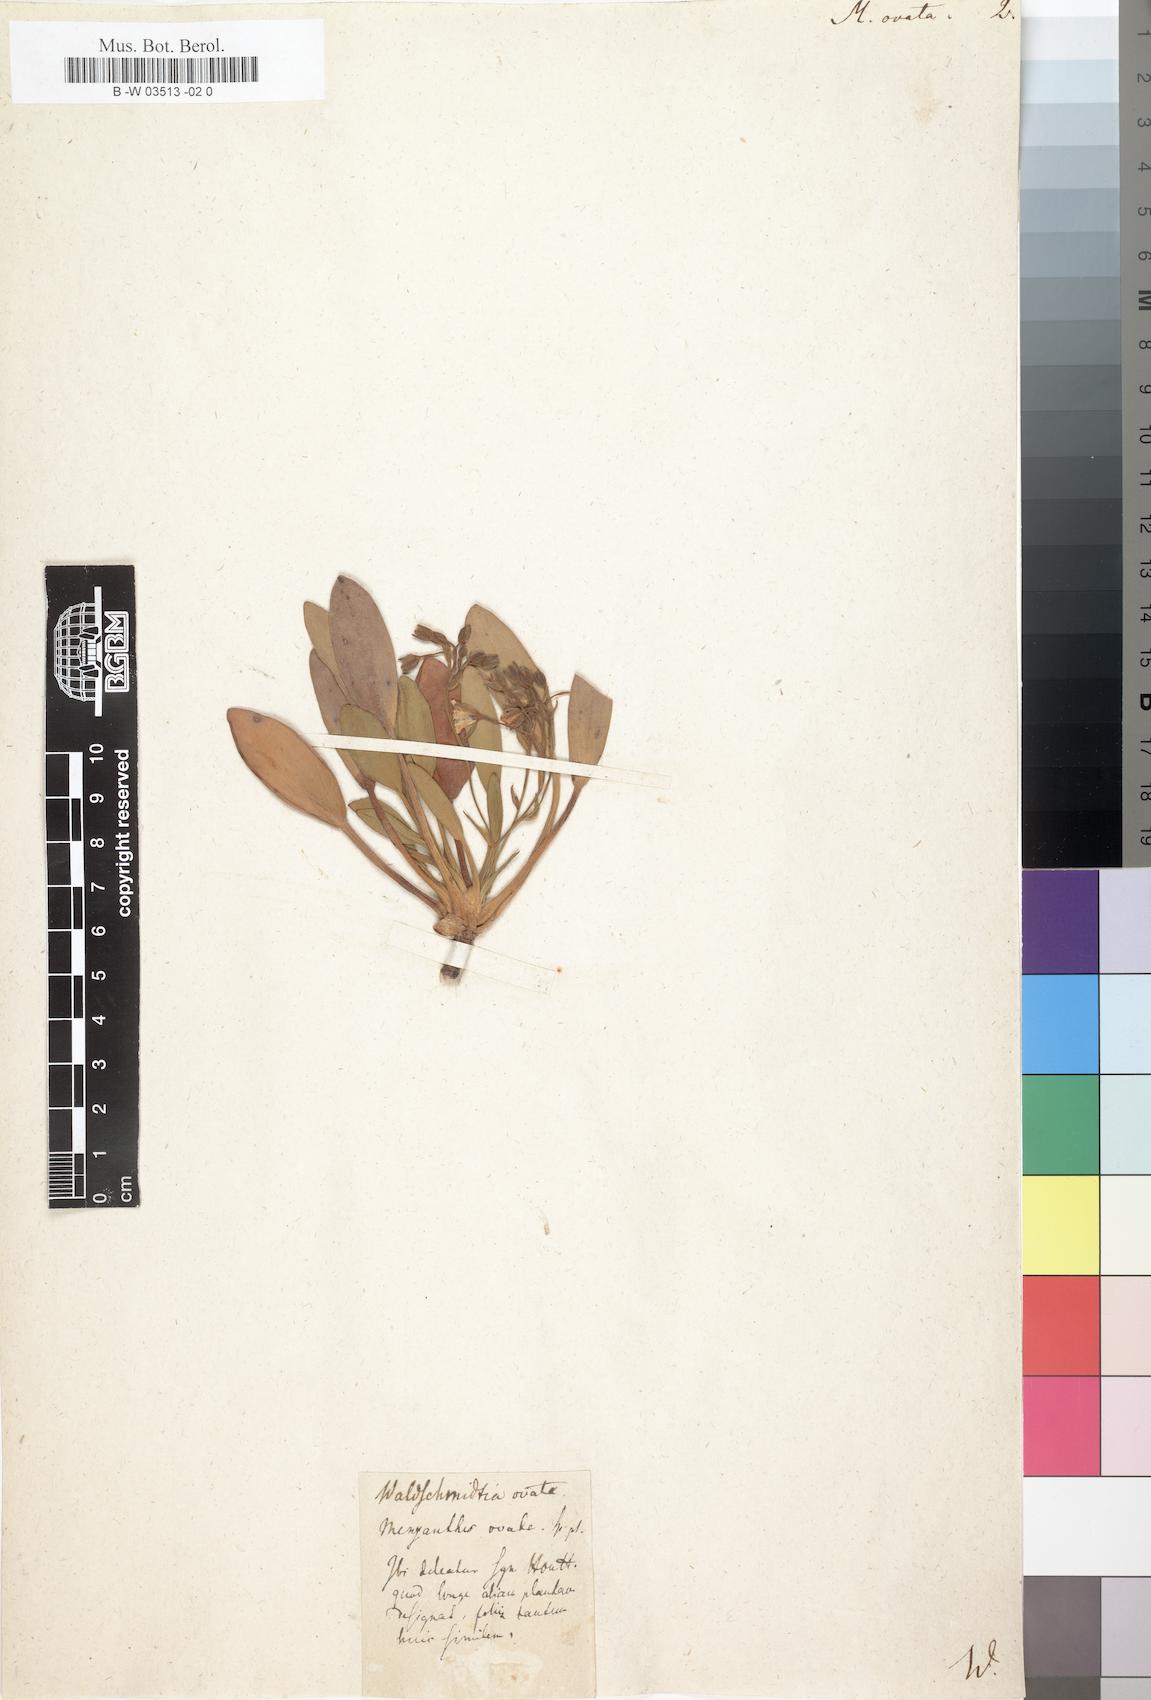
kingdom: Plantae
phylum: Tracheophyta
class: Magnoliopsida
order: Asterales
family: Menyanthaceae
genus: Villarsia
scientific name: Villarsia capensis
